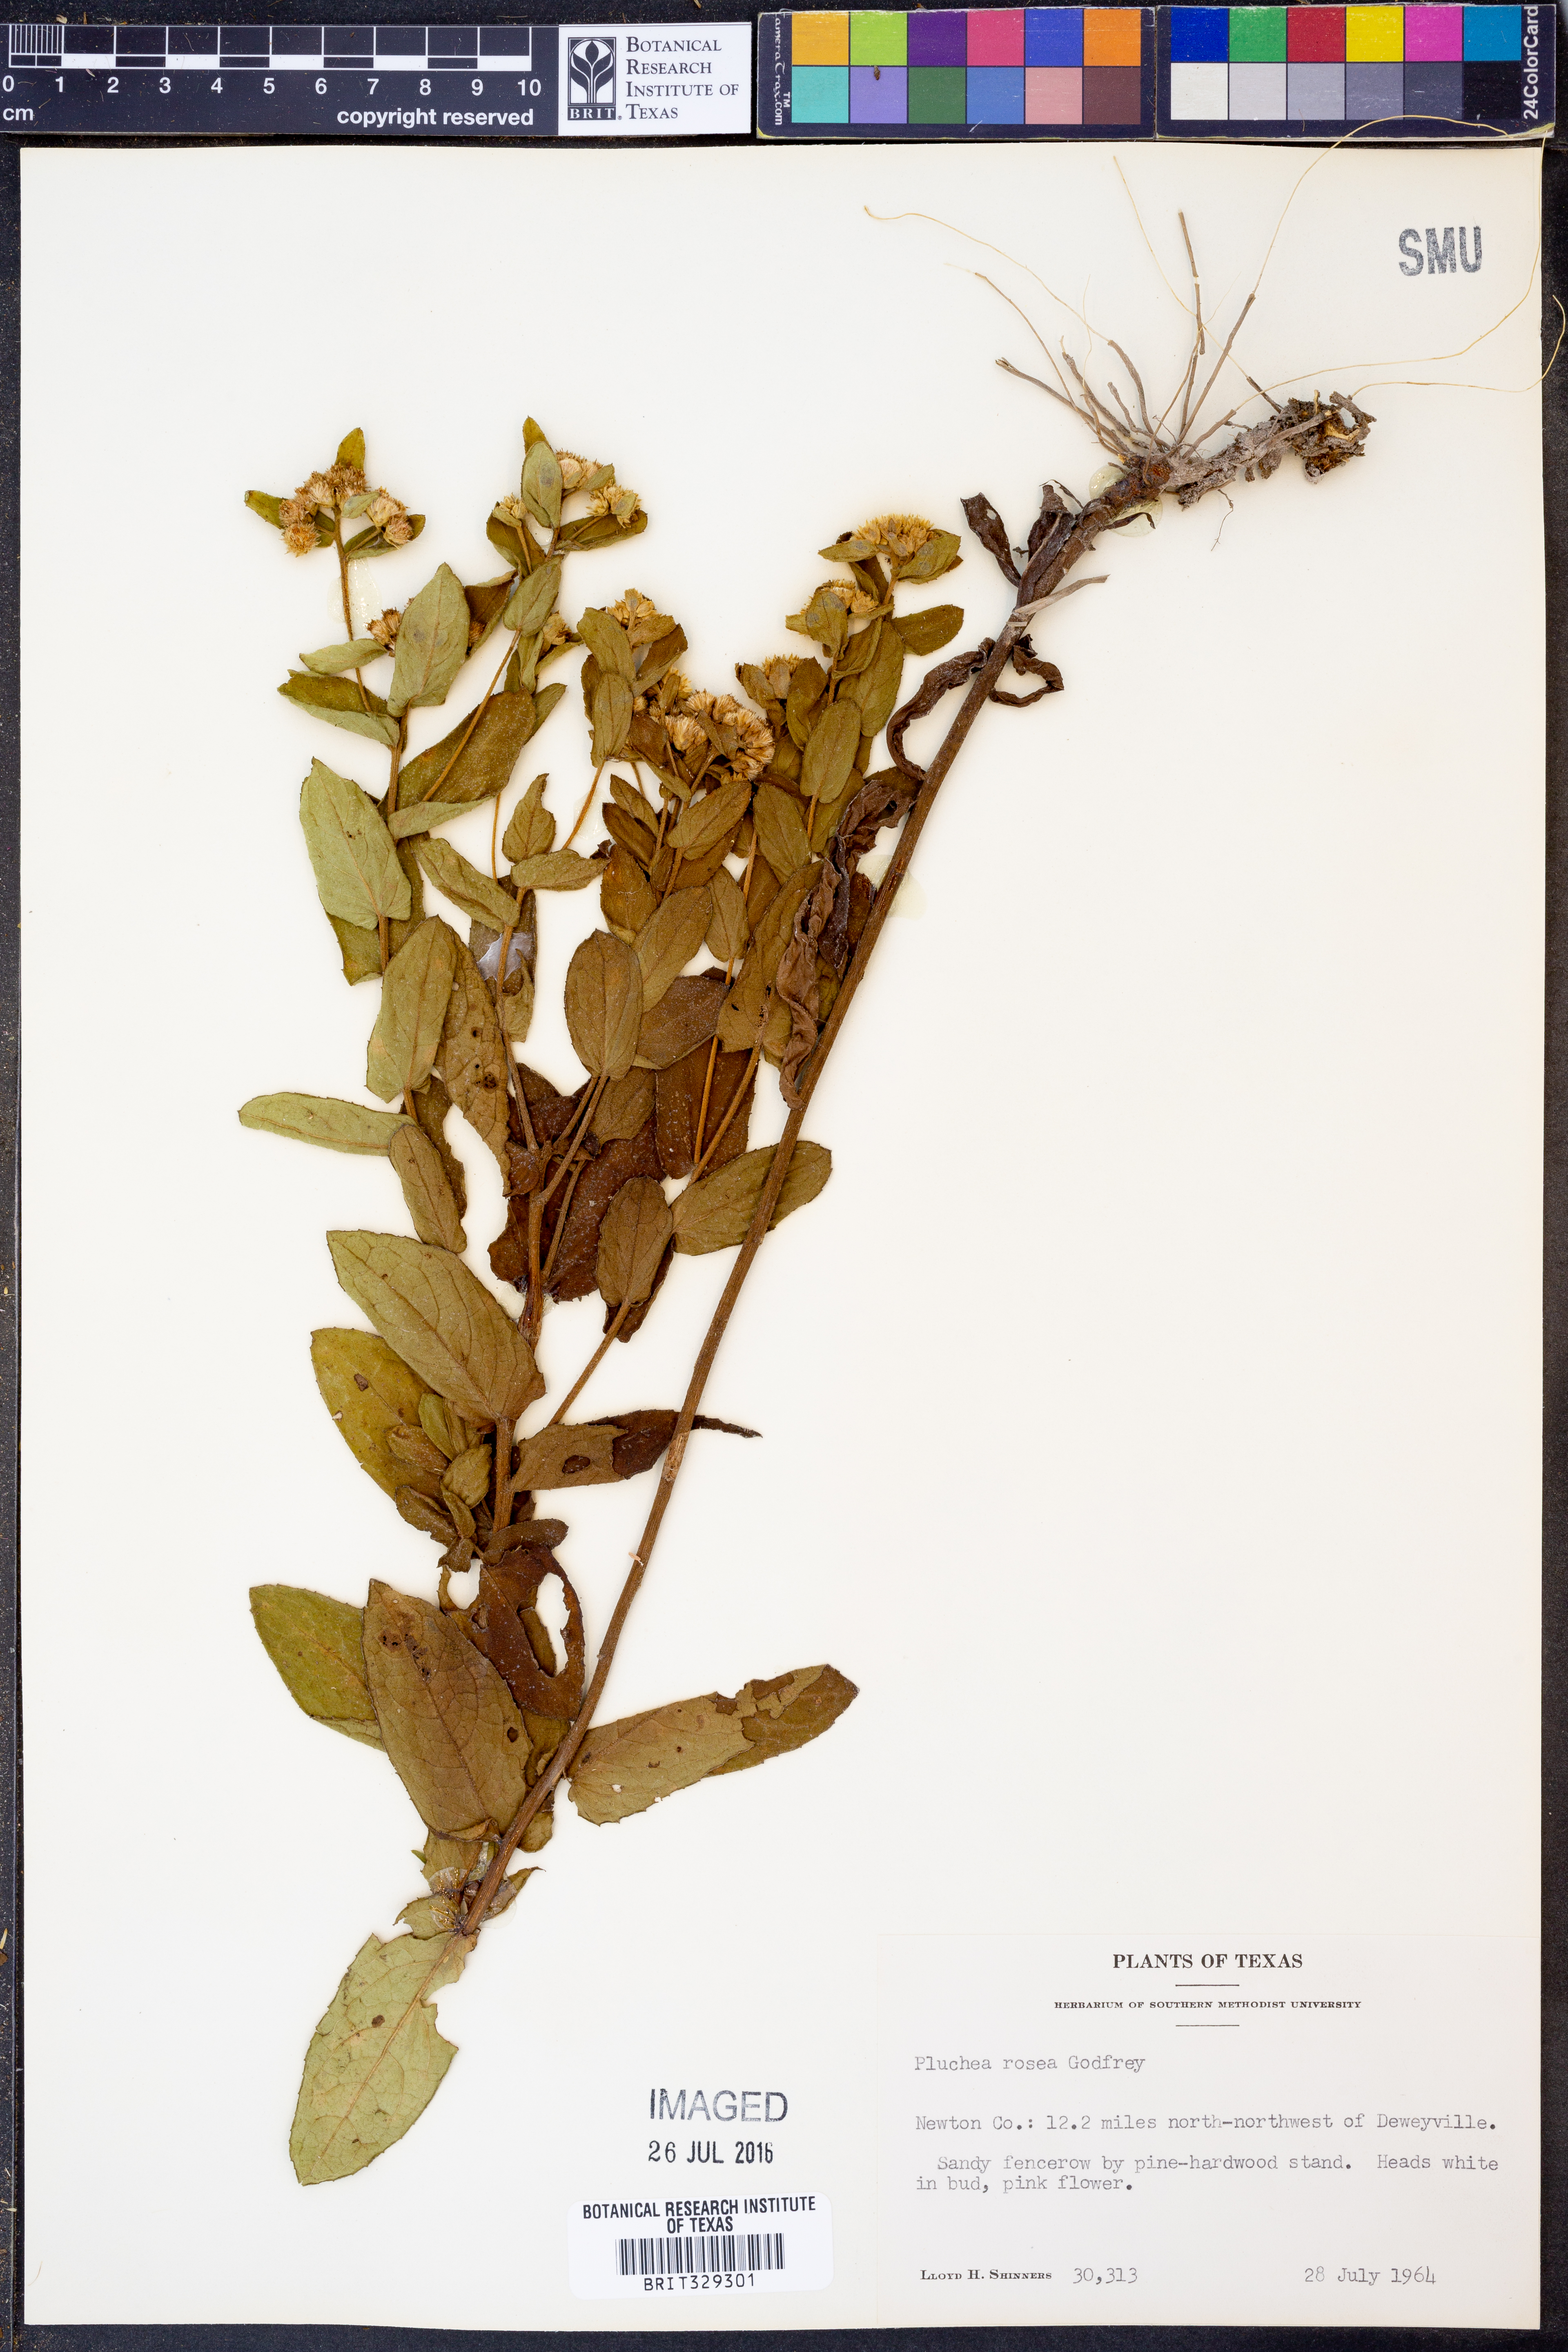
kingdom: Plantae
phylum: Tracheophyta
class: Magnoliopsida
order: Asterales
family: Asteraceae
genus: Pluchea
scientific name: Pluchea baccharis
